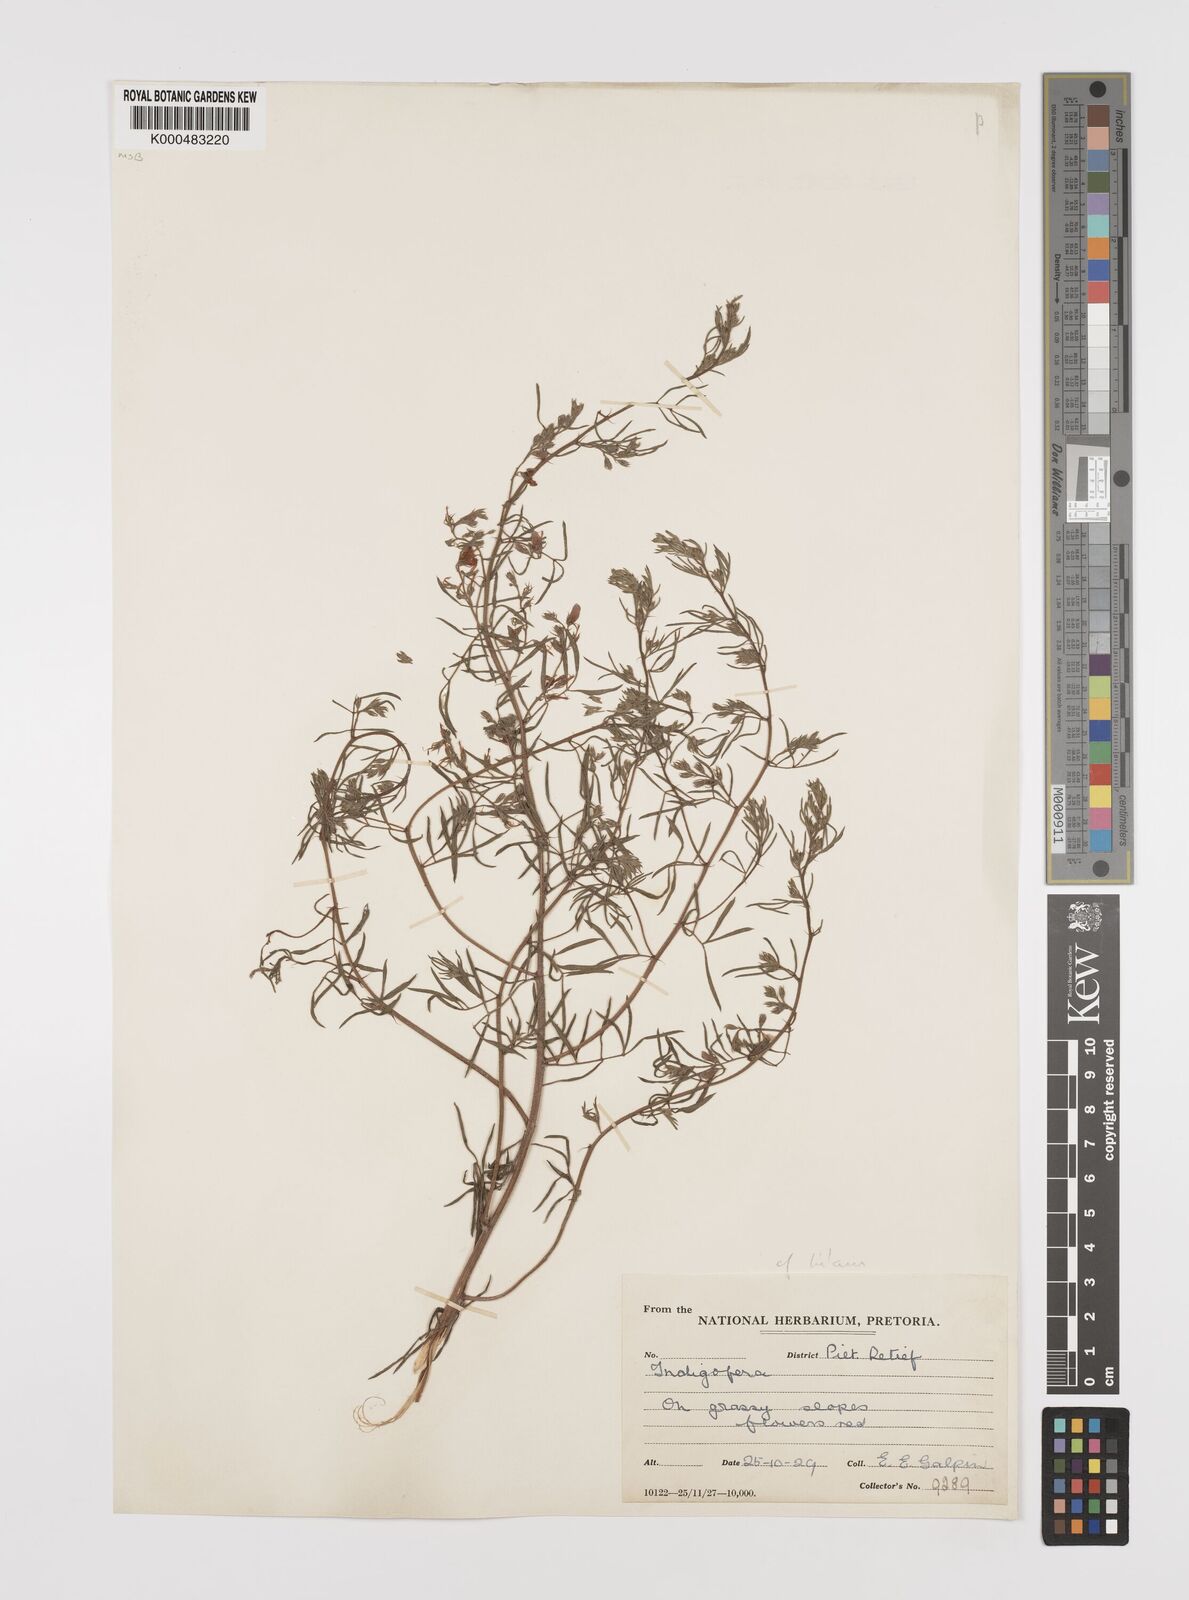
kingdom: Plantae
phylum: Tracheophyta
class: Magnoliopsida
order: Fabales
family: Fabaceae
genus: Indigofera
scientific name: Indigofera hybrida
